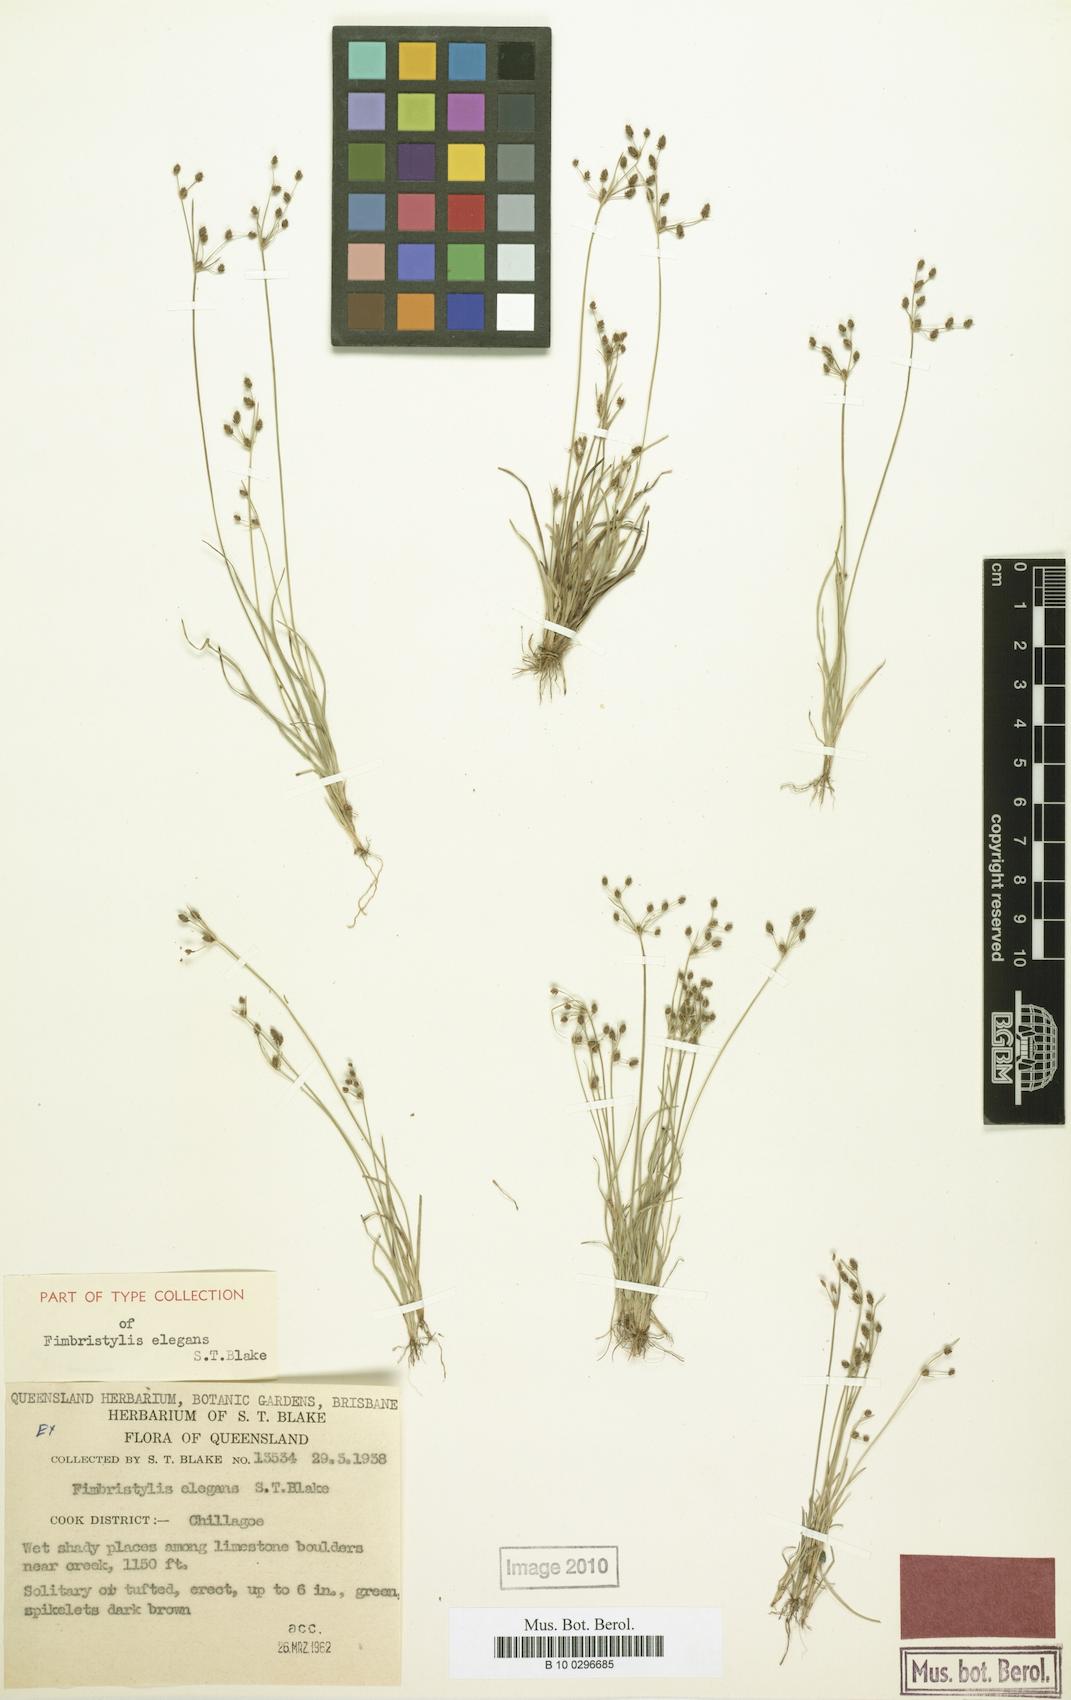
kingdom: Plantae
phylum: Tracheophyta
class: Liliopsida
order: Poales
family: Cyperaceae
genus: Fimbristylis
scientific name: Fimbristylis elegans
